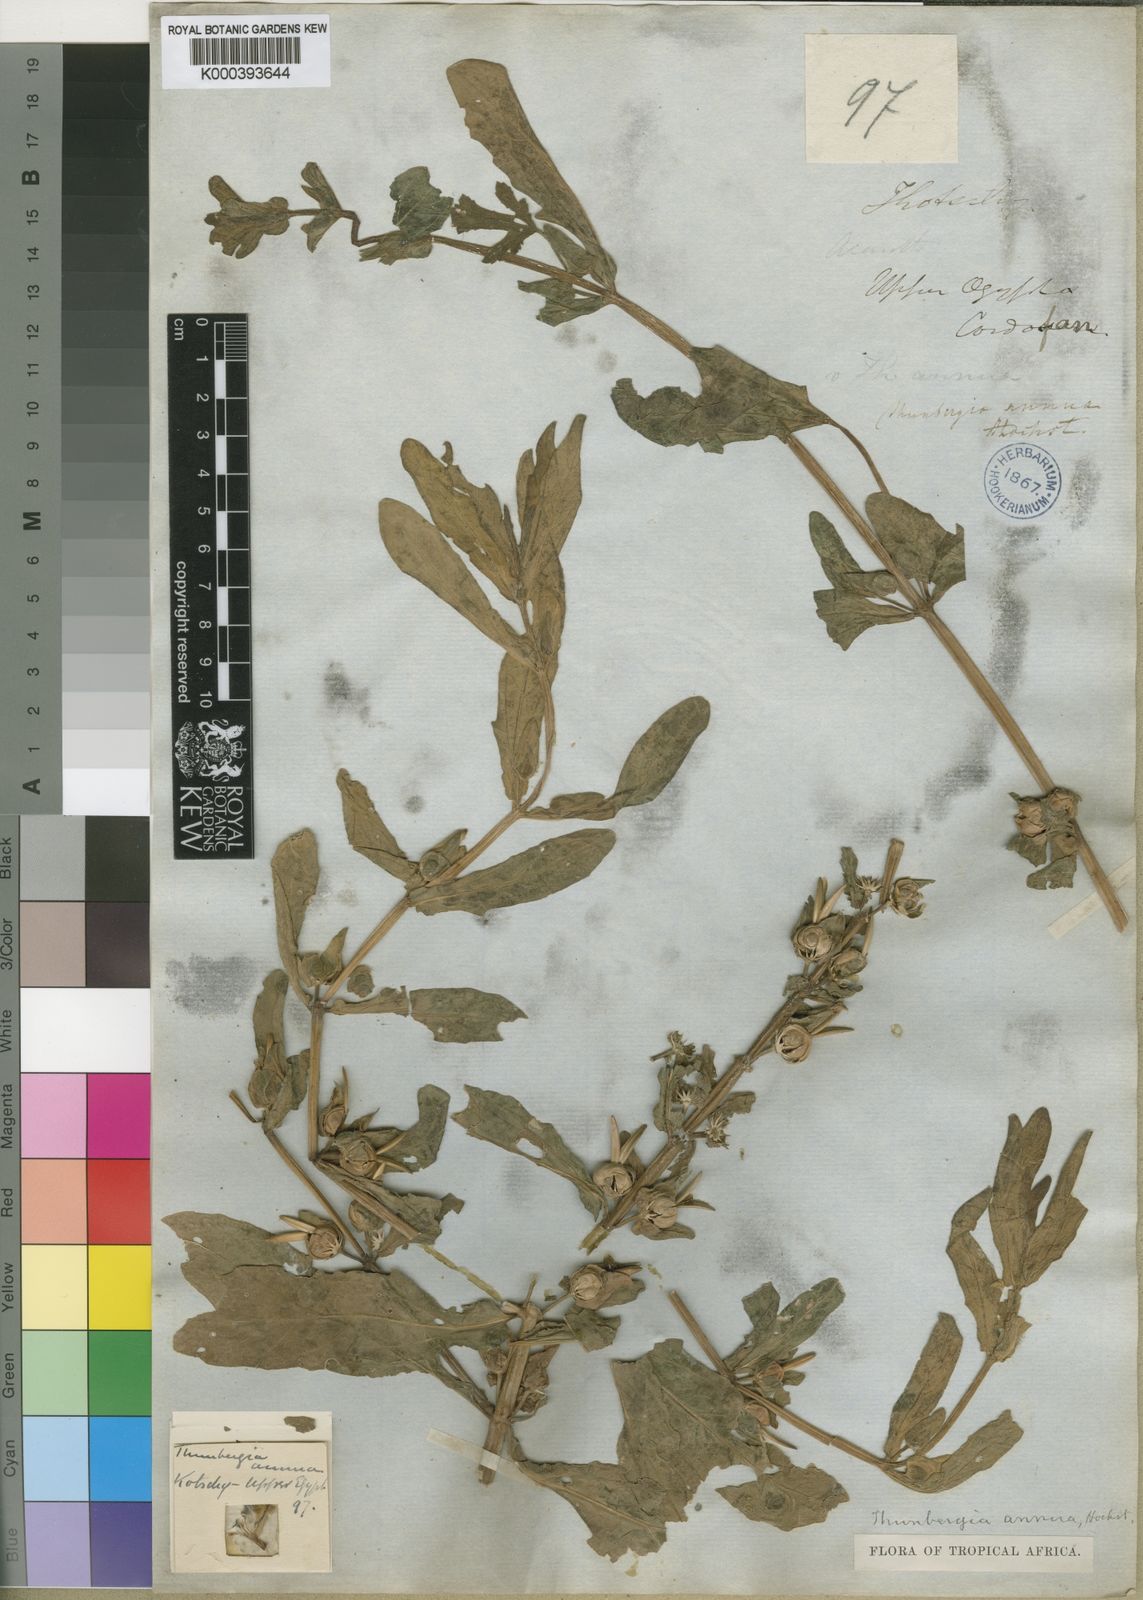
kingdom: Plantae
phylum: Tracheophyta
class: Magnoliopsida
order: Lamiales
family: Acanthaceae
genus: Thunbergia
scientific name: Thunbergia annua
